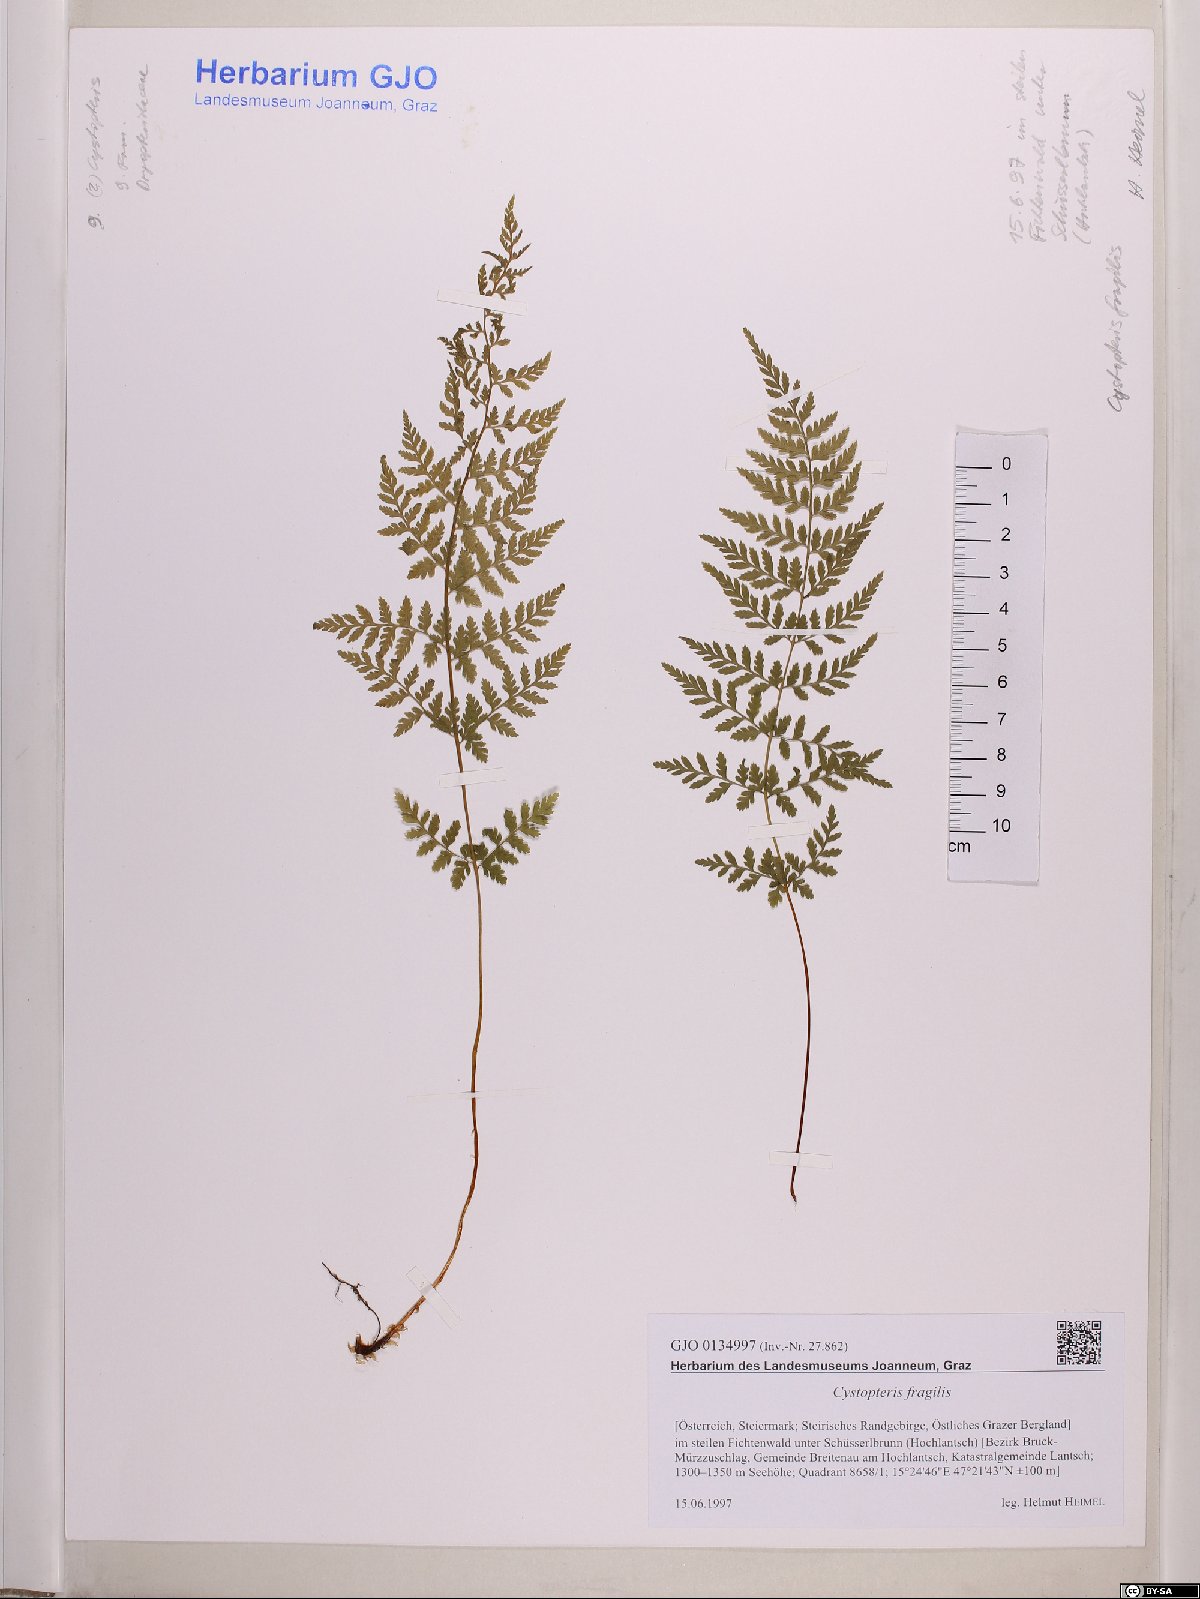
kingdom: Plantae
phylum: Tracheophyta
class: Polypodiopsida
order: Polypodiales
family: Cystopteridaceae
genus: Cystopteris
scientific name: Cystopteris fragilis
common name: Brittle bladder fern
